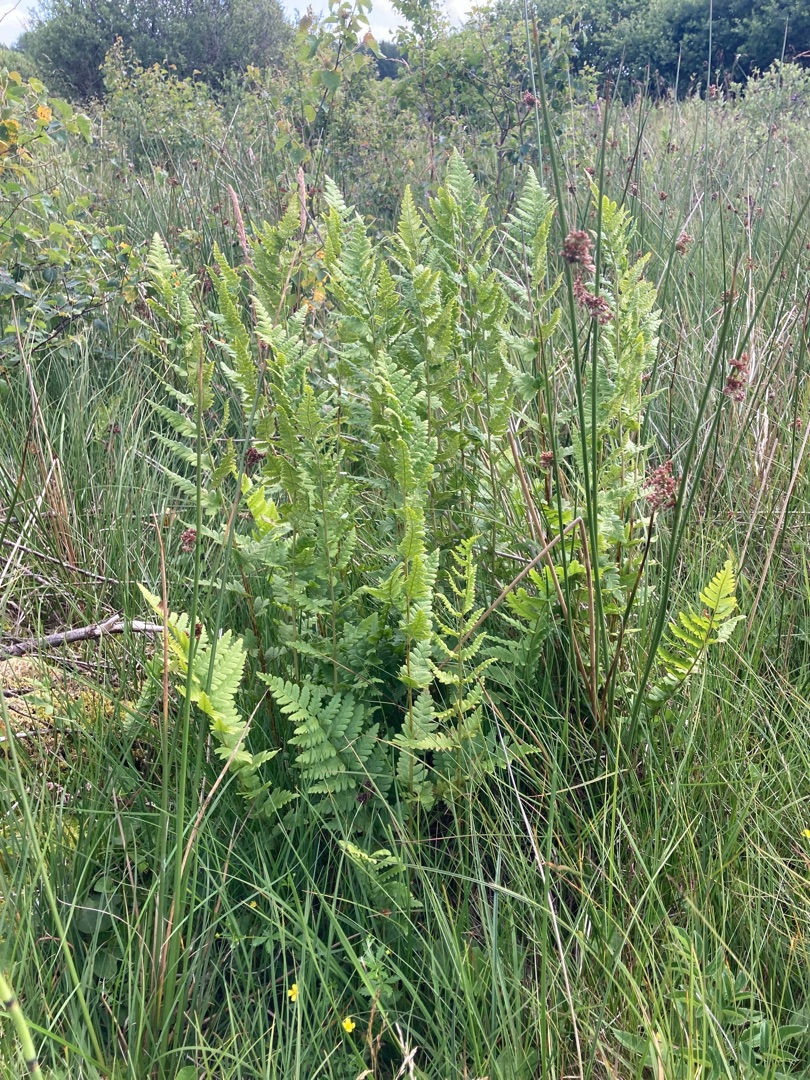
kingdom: Plantae
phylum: Tracheophyta
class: Polypodiopsida
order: Polypodiales
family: Dryopteridaceae
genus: Dryopteris
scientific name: Dryopteris cristata
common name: Butfinnet mangeløv
